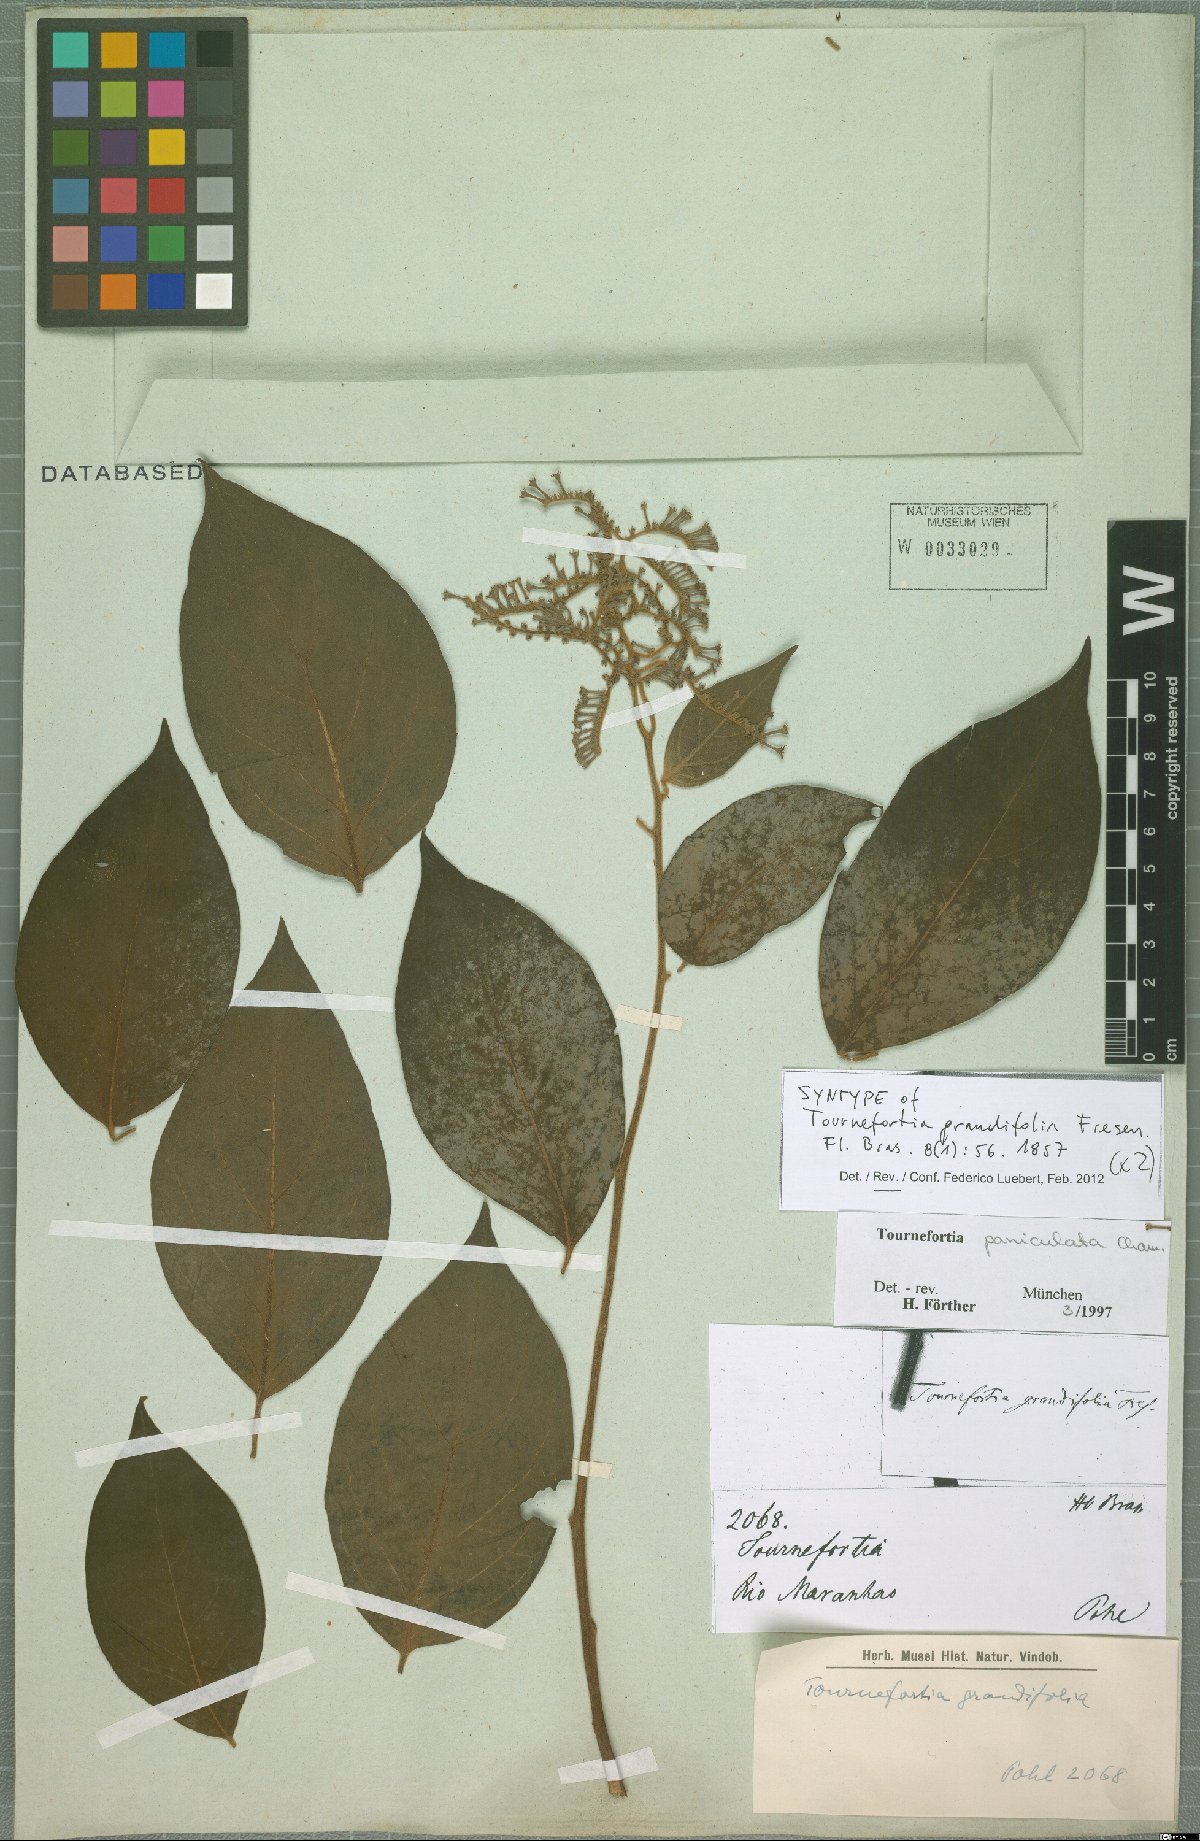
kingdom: Plantae
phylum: Tracheophyta
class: Magnoliopsida
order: Boraginales
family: Heliotropiaceae
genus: Myriopus
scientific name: Myriopus paniculatus
